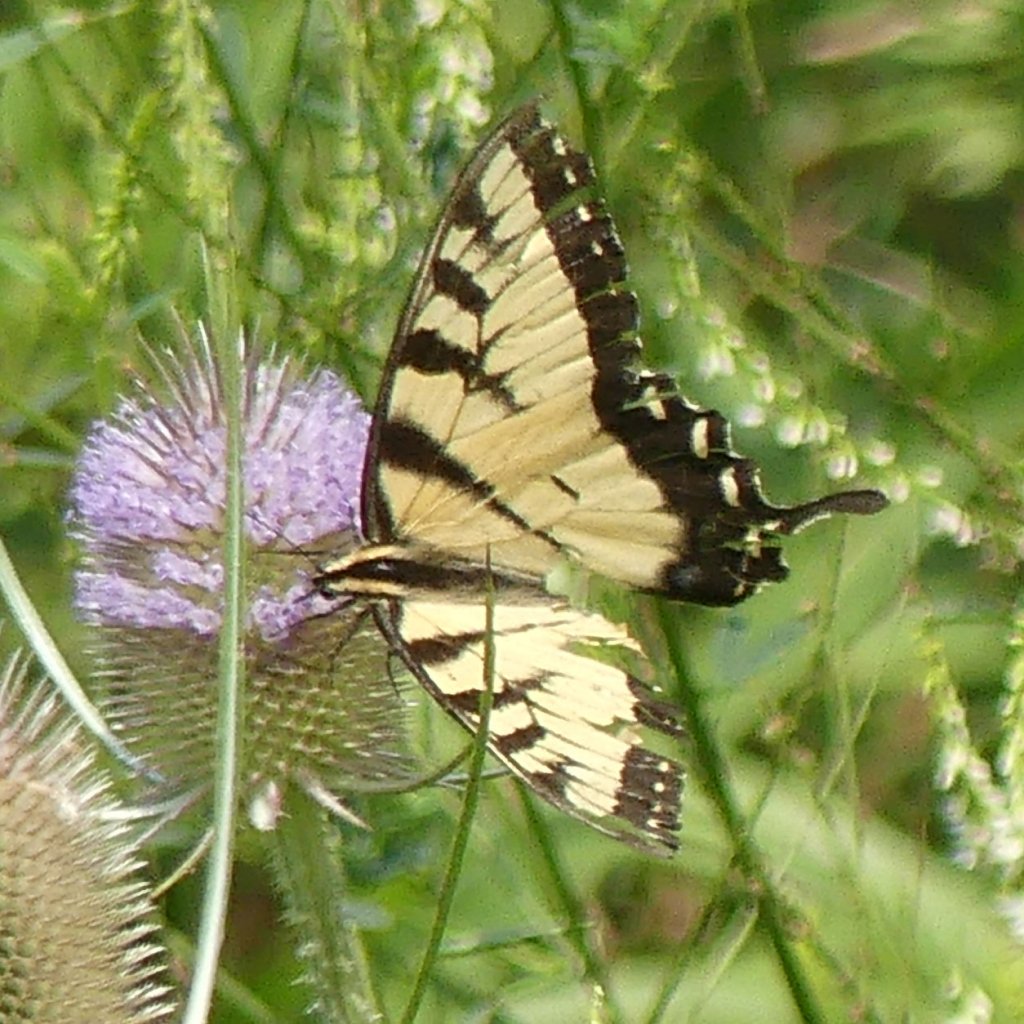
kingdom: Animalia
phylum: Arthropoda
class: Insecta
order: Lepidoptera
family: Papilionidae
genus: Pterourus
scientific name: Pterourus glaucus
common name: Eastern Tiger Swallowtail
